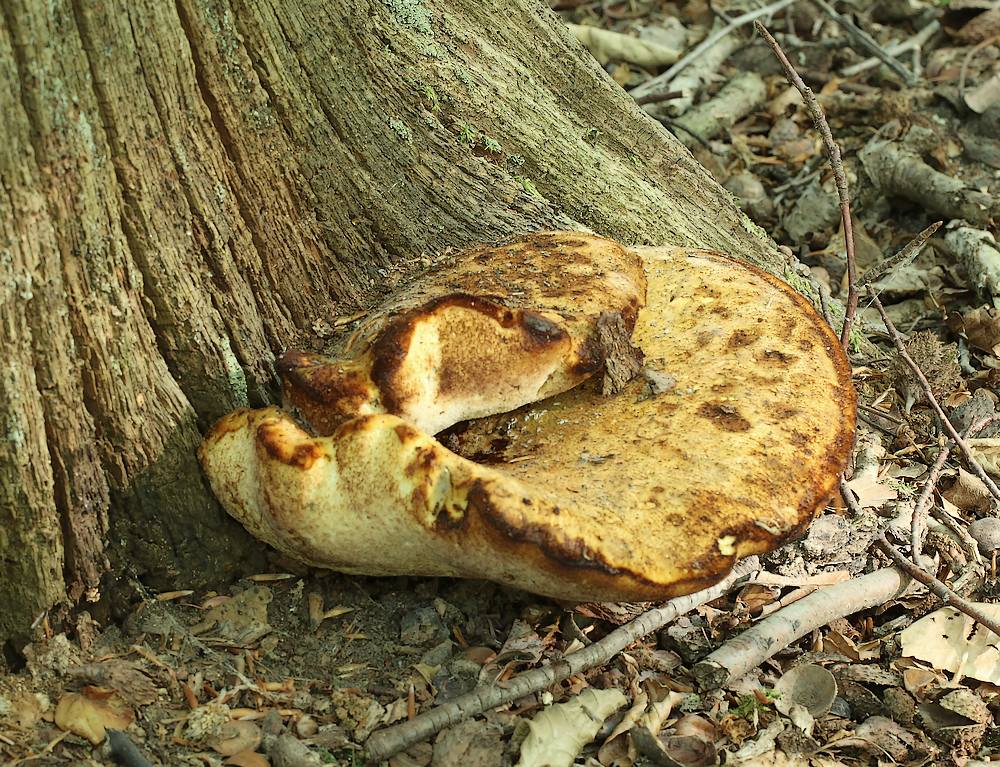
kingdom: Fungi
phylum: Basidiomycota
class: Agaricomycetes
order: Polyporales
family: Fomitopsidaceae
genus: Buglossoporus
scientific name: Buglossoporus quercinus
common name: egetunge
